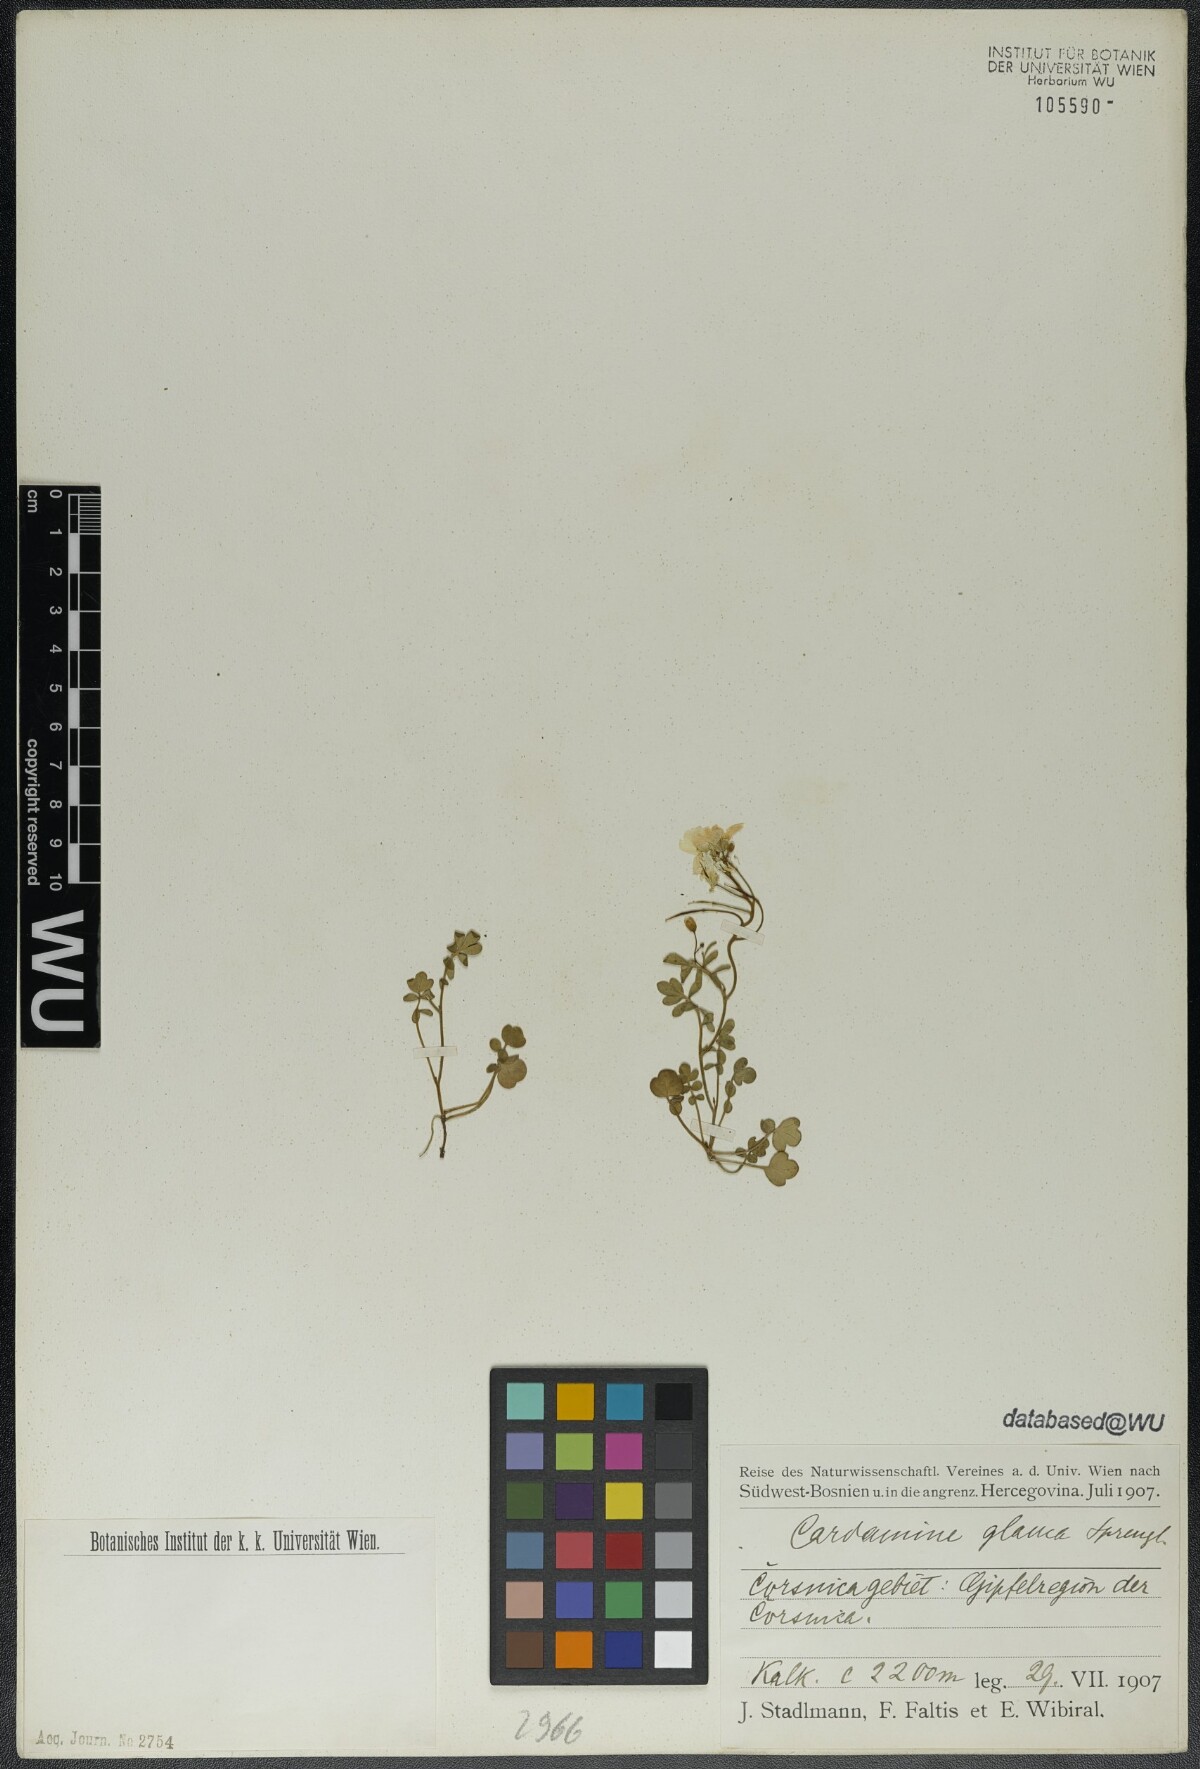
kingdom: Plantae
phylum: Tracheophyta
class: Magnoliopsida
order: Brassicales
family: Brassicaceae
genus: Cardamine
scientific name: Cardamine glauca
